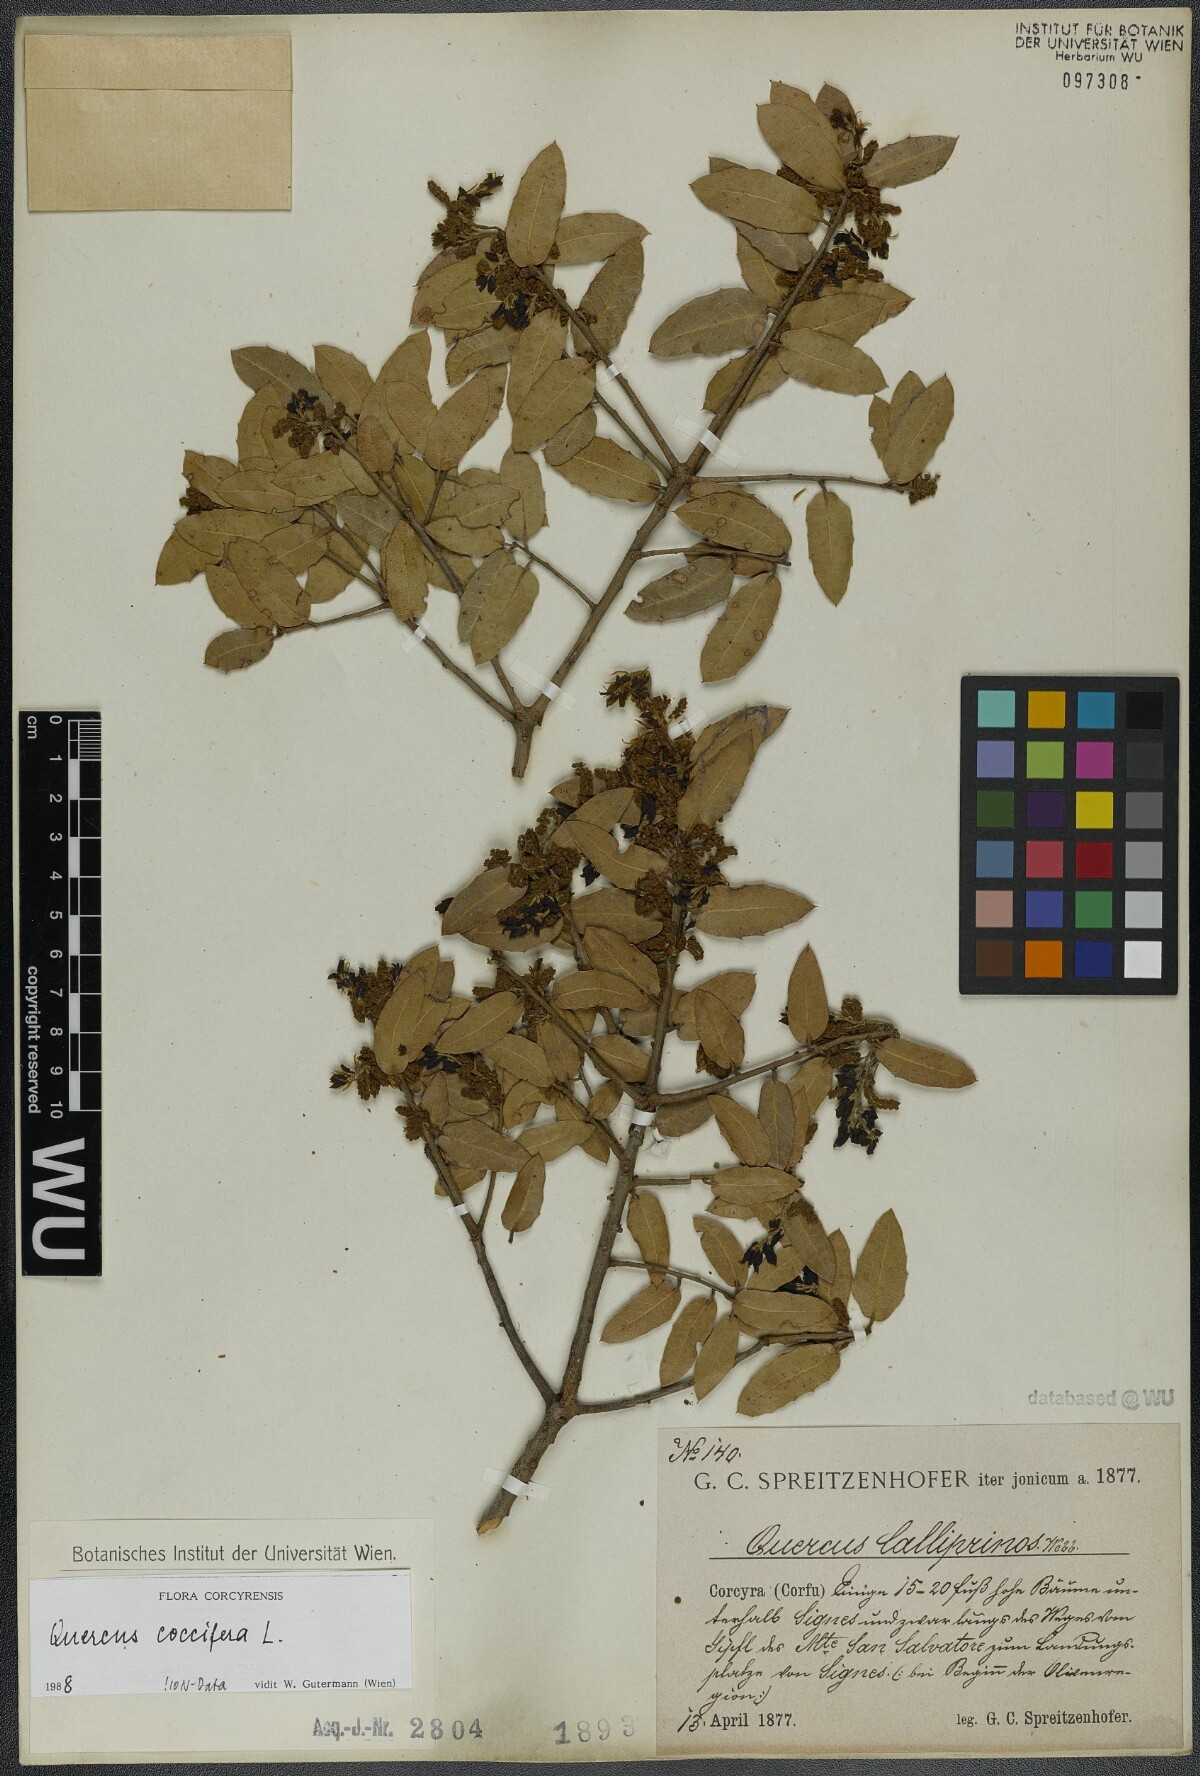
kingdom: Plantae
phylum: Tracheophyta
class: Magnoliopsida
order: Fagales
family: Fagaceae
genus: Quercus
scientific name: Quercus coccifera
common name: Kermes oak
